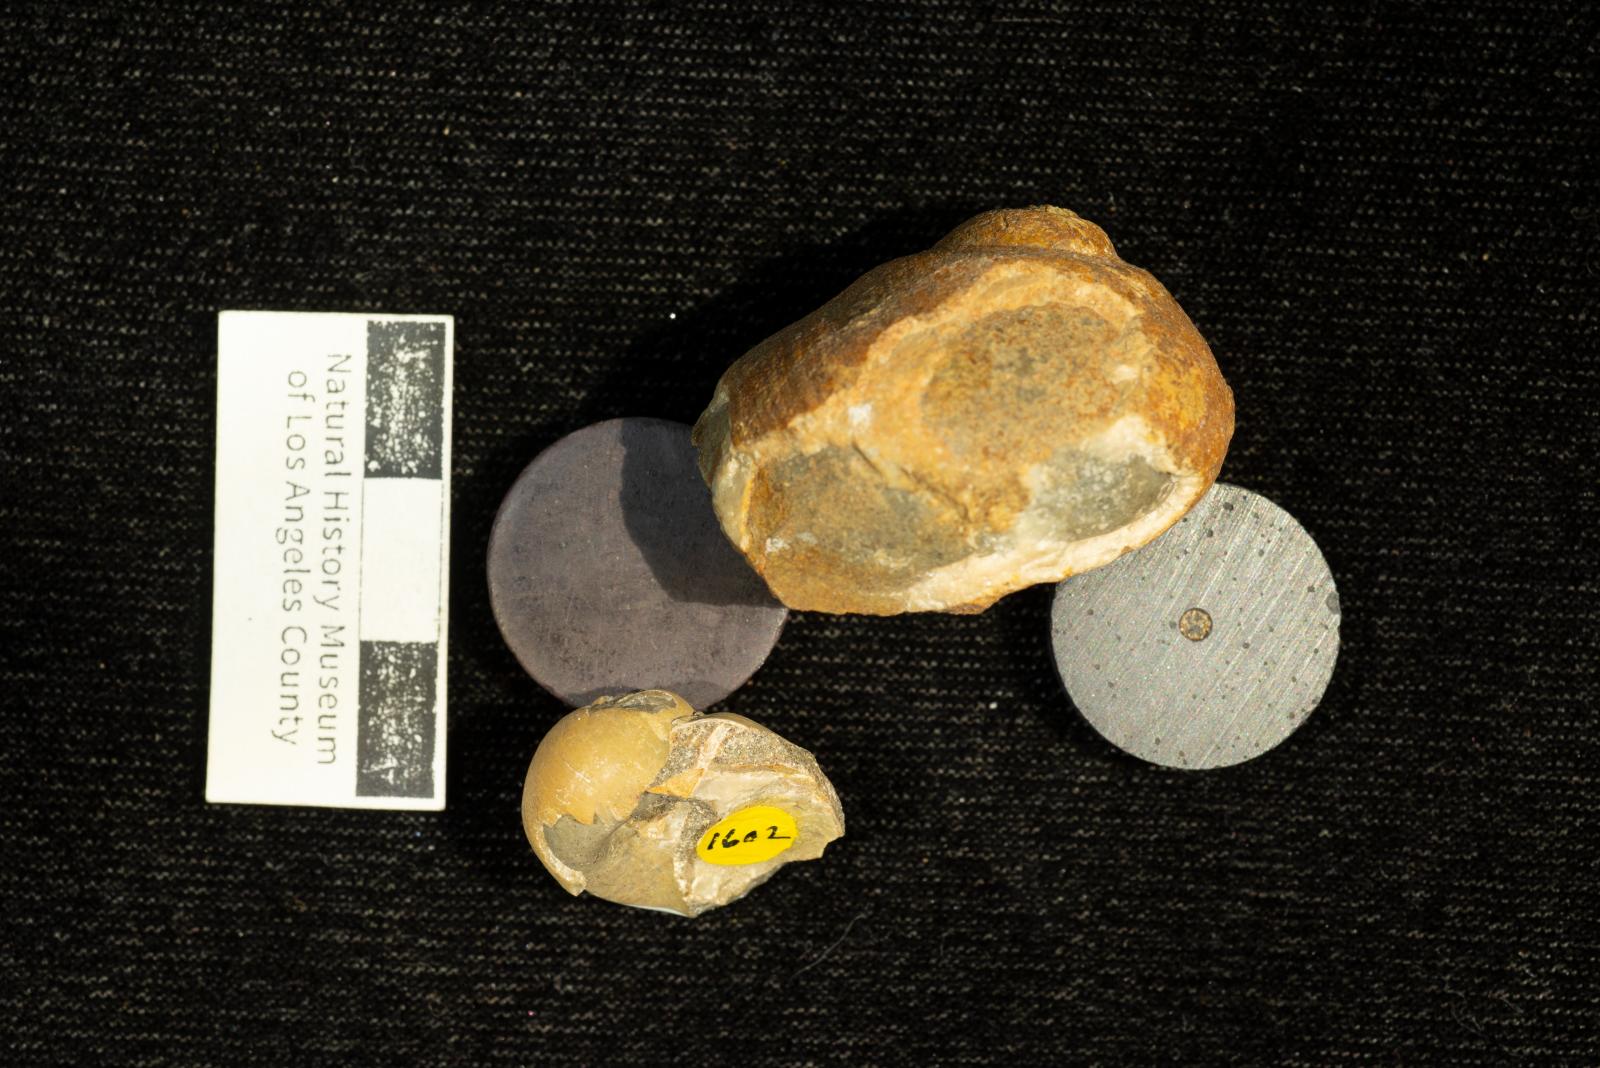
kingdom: Animalia
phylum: Mollusca
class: Gastropoda
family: Gyrodidae
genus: Gyrodes
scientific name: Gyrodes expansus
